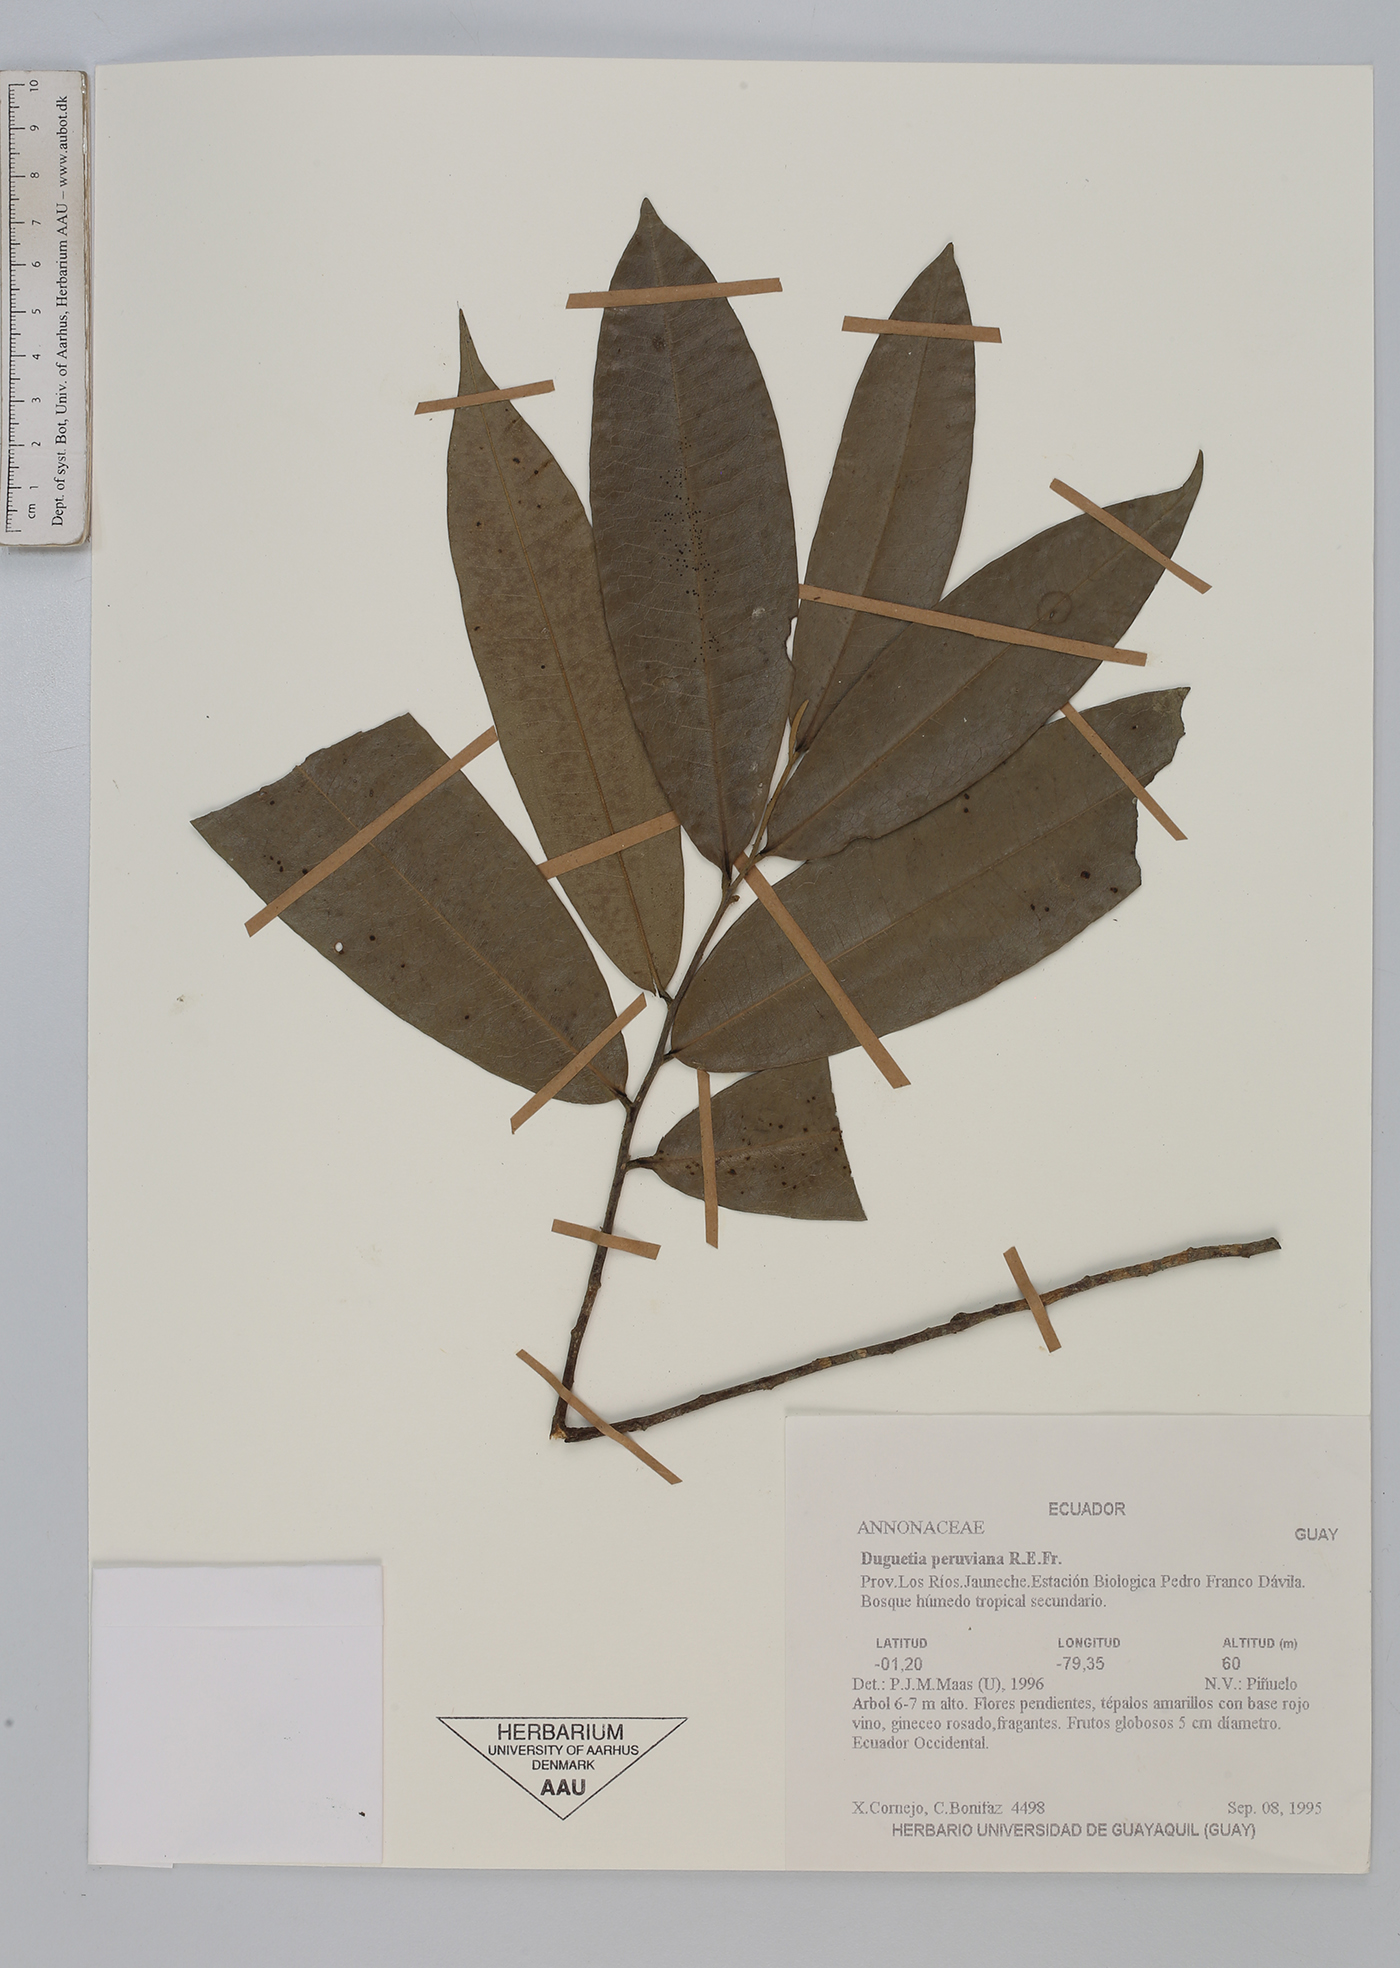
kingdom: Plantae
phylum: Tracheophyta
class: Magnoliopsida
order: Magnoliales
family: Annonaceae
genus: Duguetia
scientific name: Duguetia peruviana
